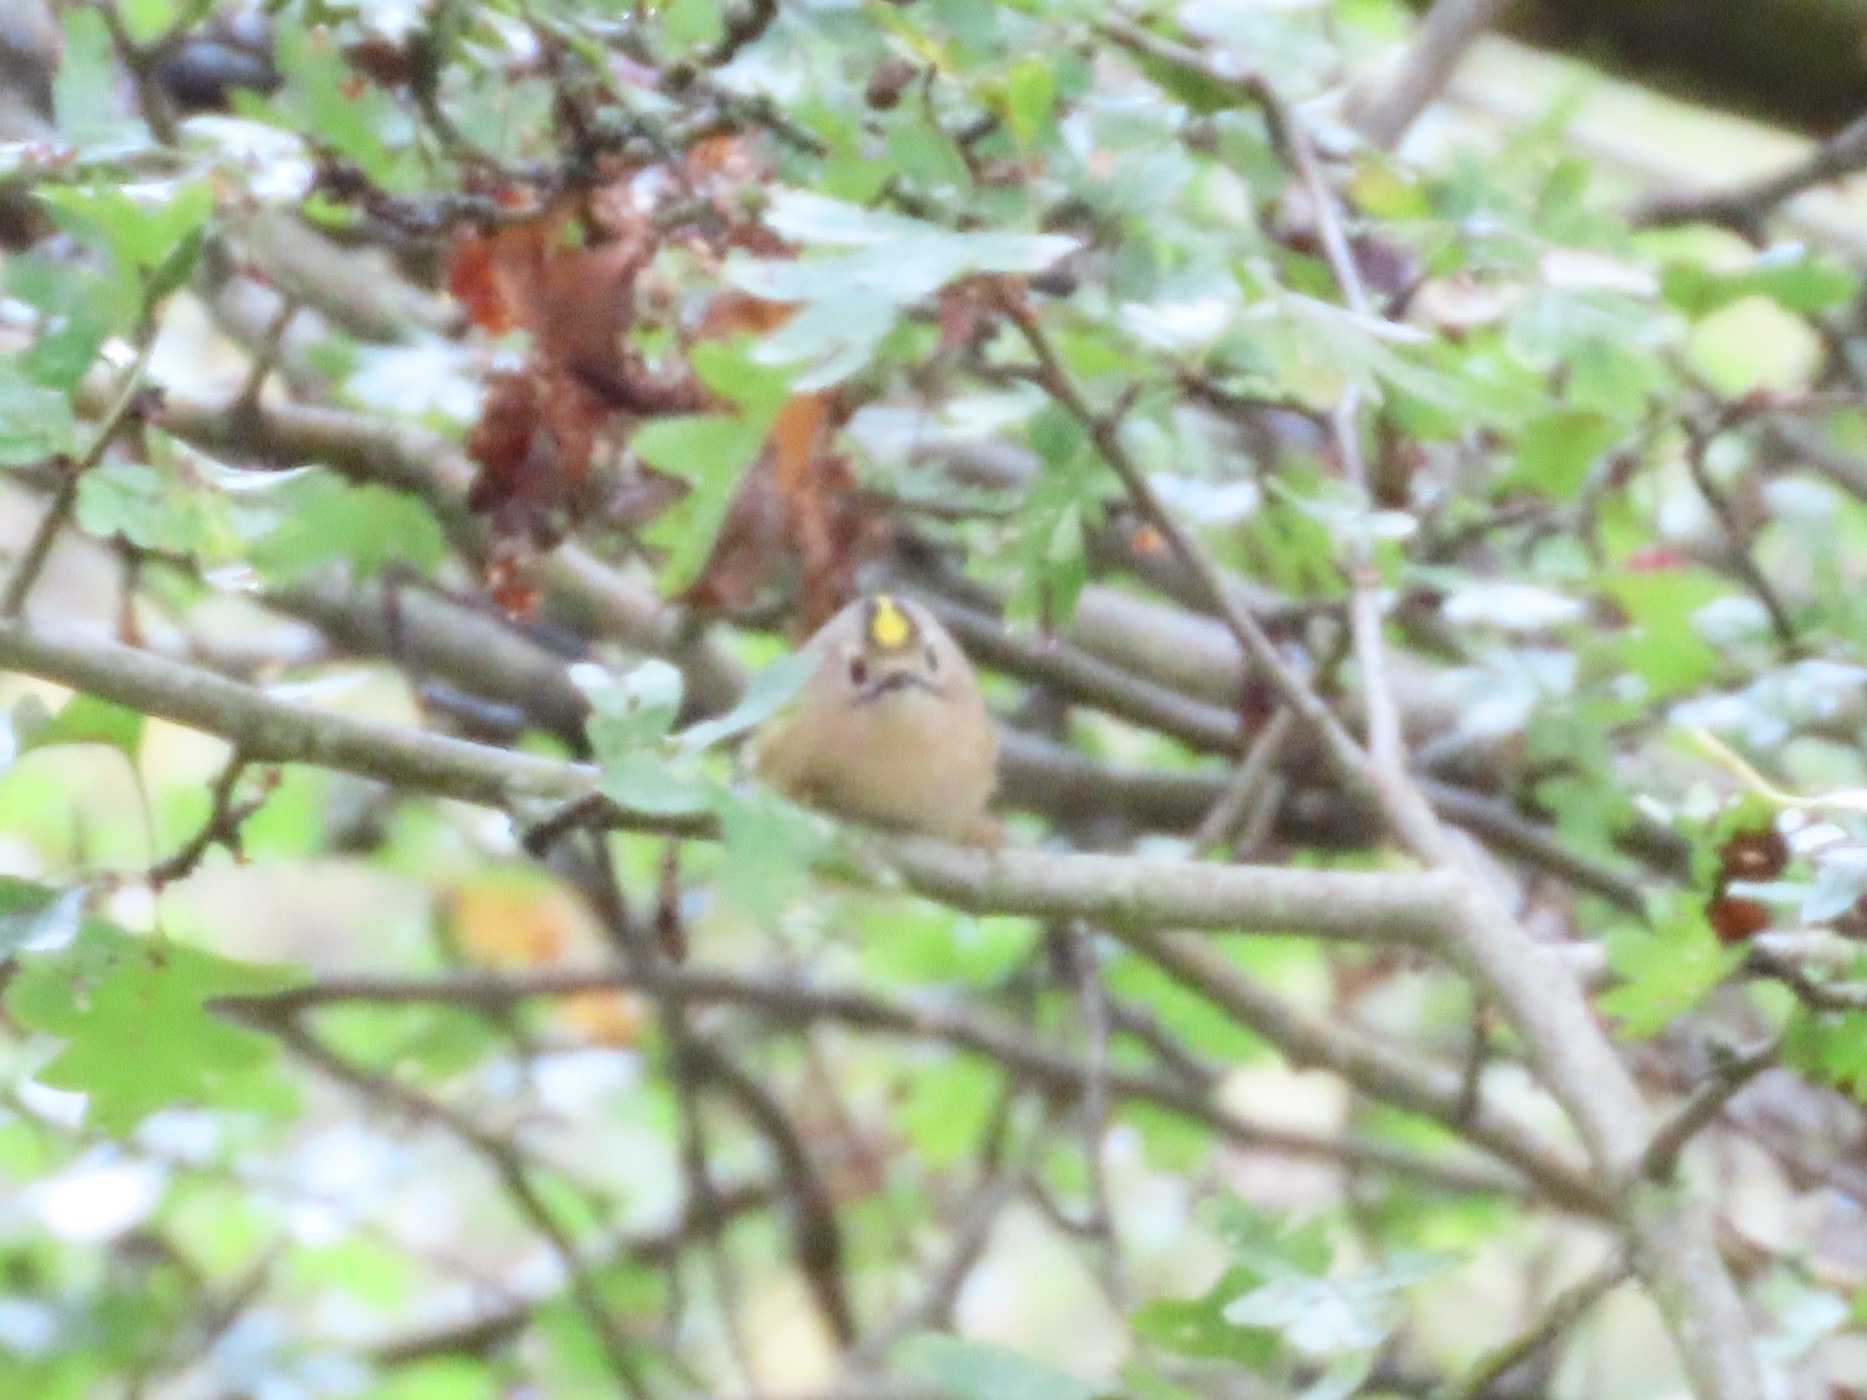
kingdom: Animalia
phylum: Chordata
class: Aves
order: Passeriformes
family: Regulidae
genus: Regulus
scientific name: Regulus regulus
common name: Fuglekonge
